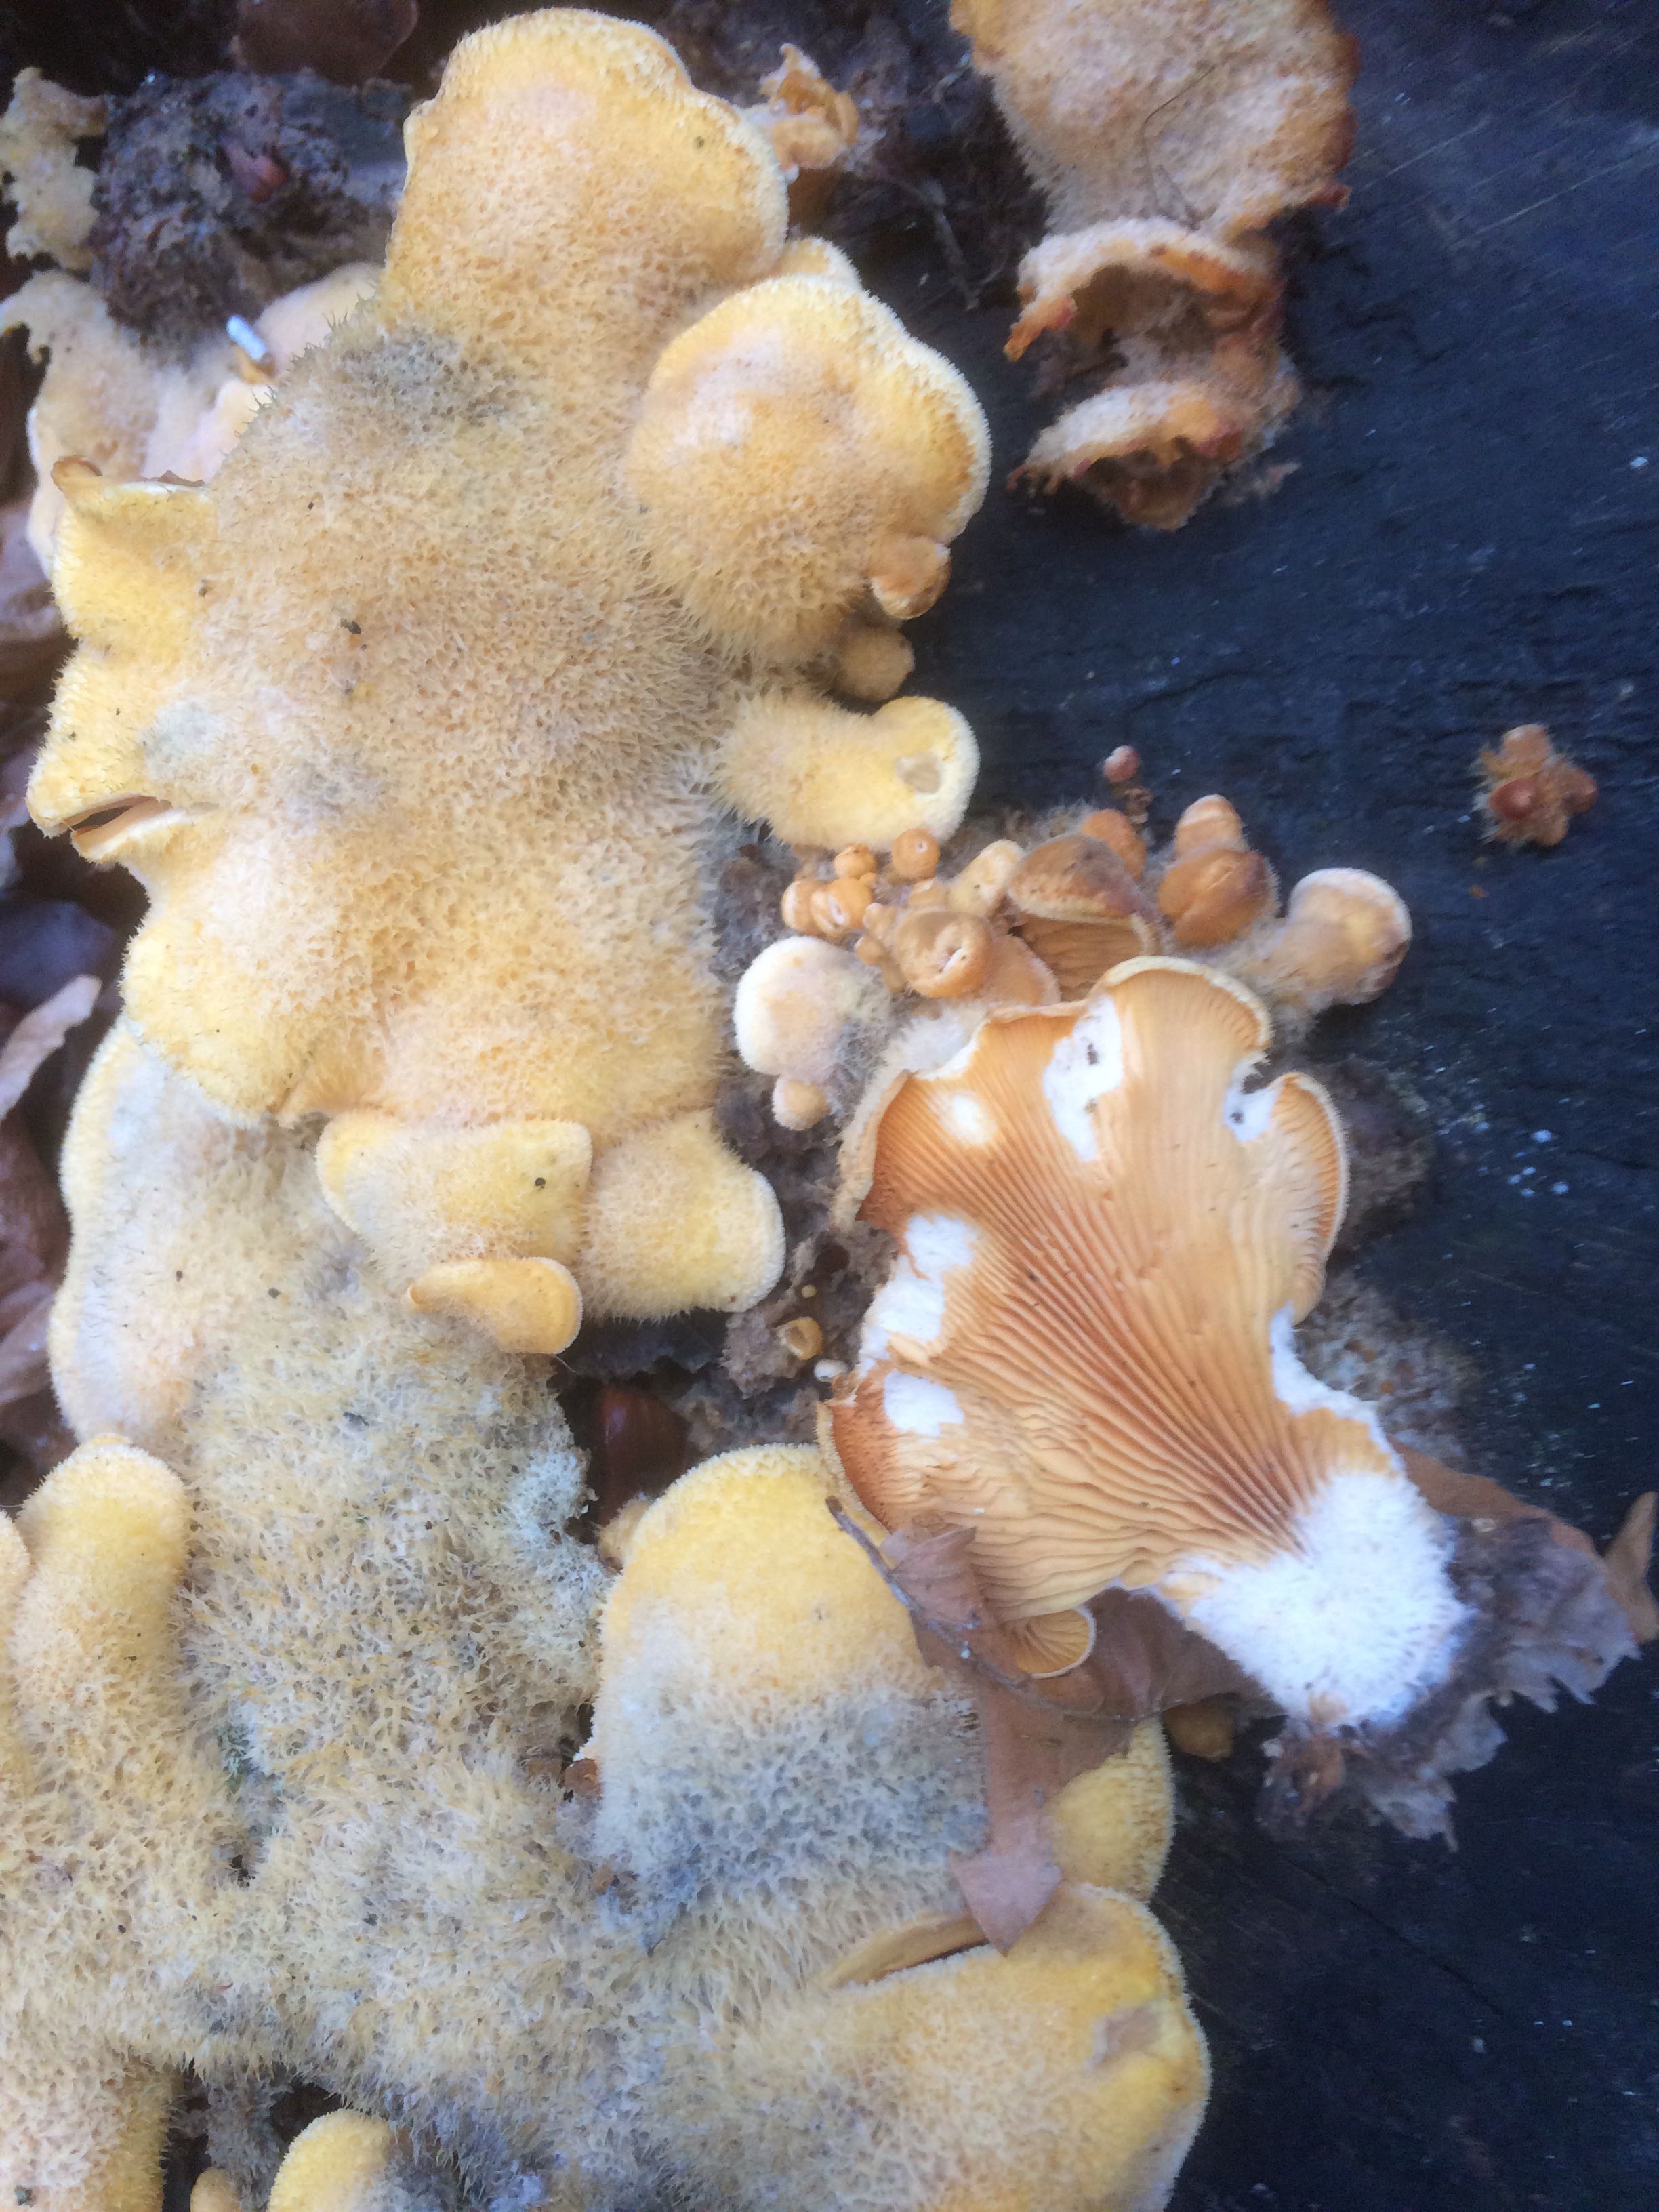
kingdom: Fungi
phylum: Basidiomycota
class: Agaricomycetes
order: Agaricales
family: Phyllotopsidaceae
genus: Phyllotopsis
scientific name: Phyllotopsis nidulans
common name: okkerblad
